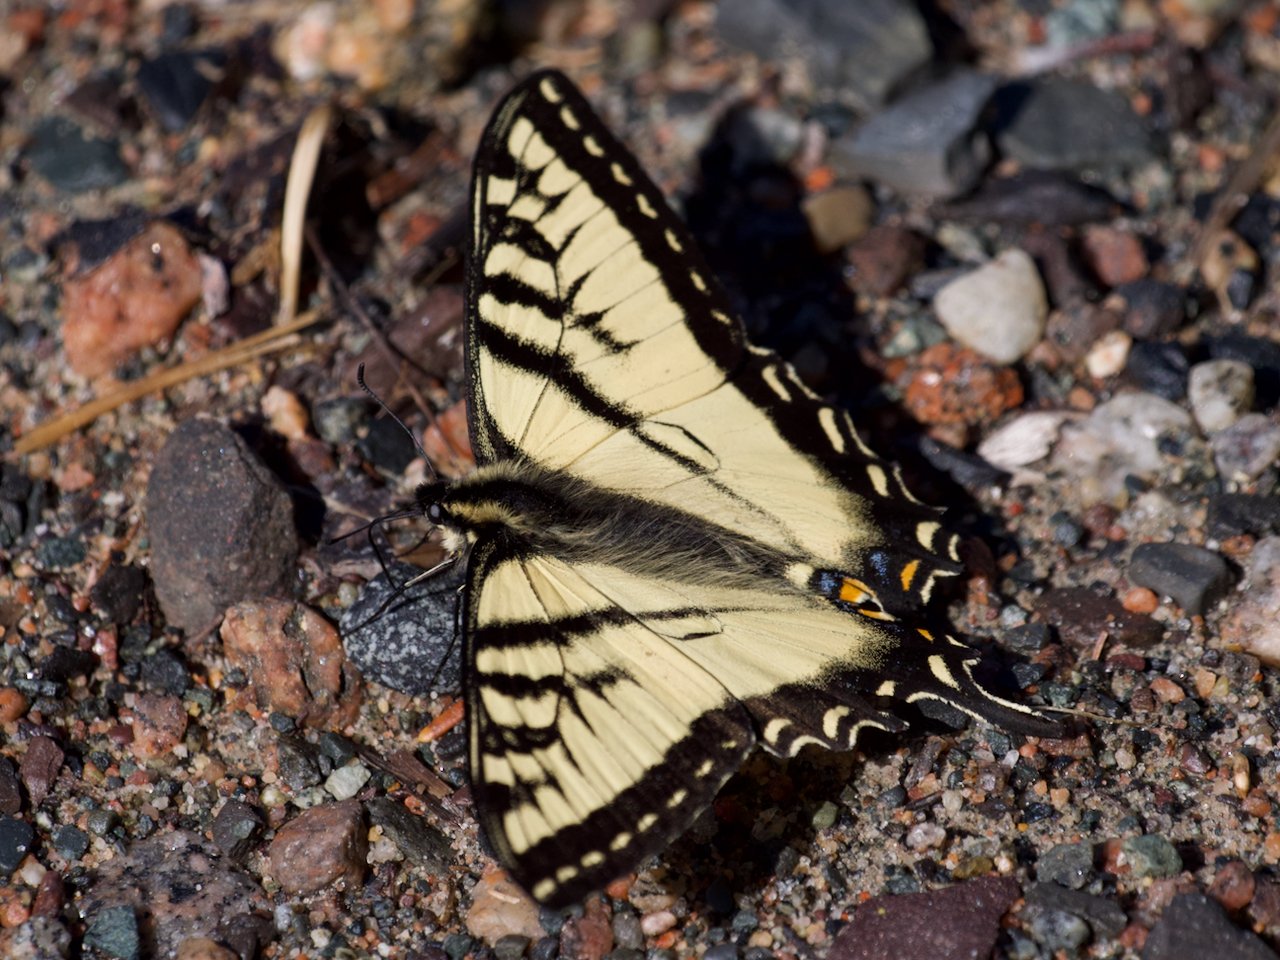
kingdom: Animalia
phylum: Arthropoda
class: Insecta
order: Lepidoptera
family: Papilionidae
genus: Pterourus
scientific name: Pterourus canadensis
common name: Canadian Tiger Swallowtail
